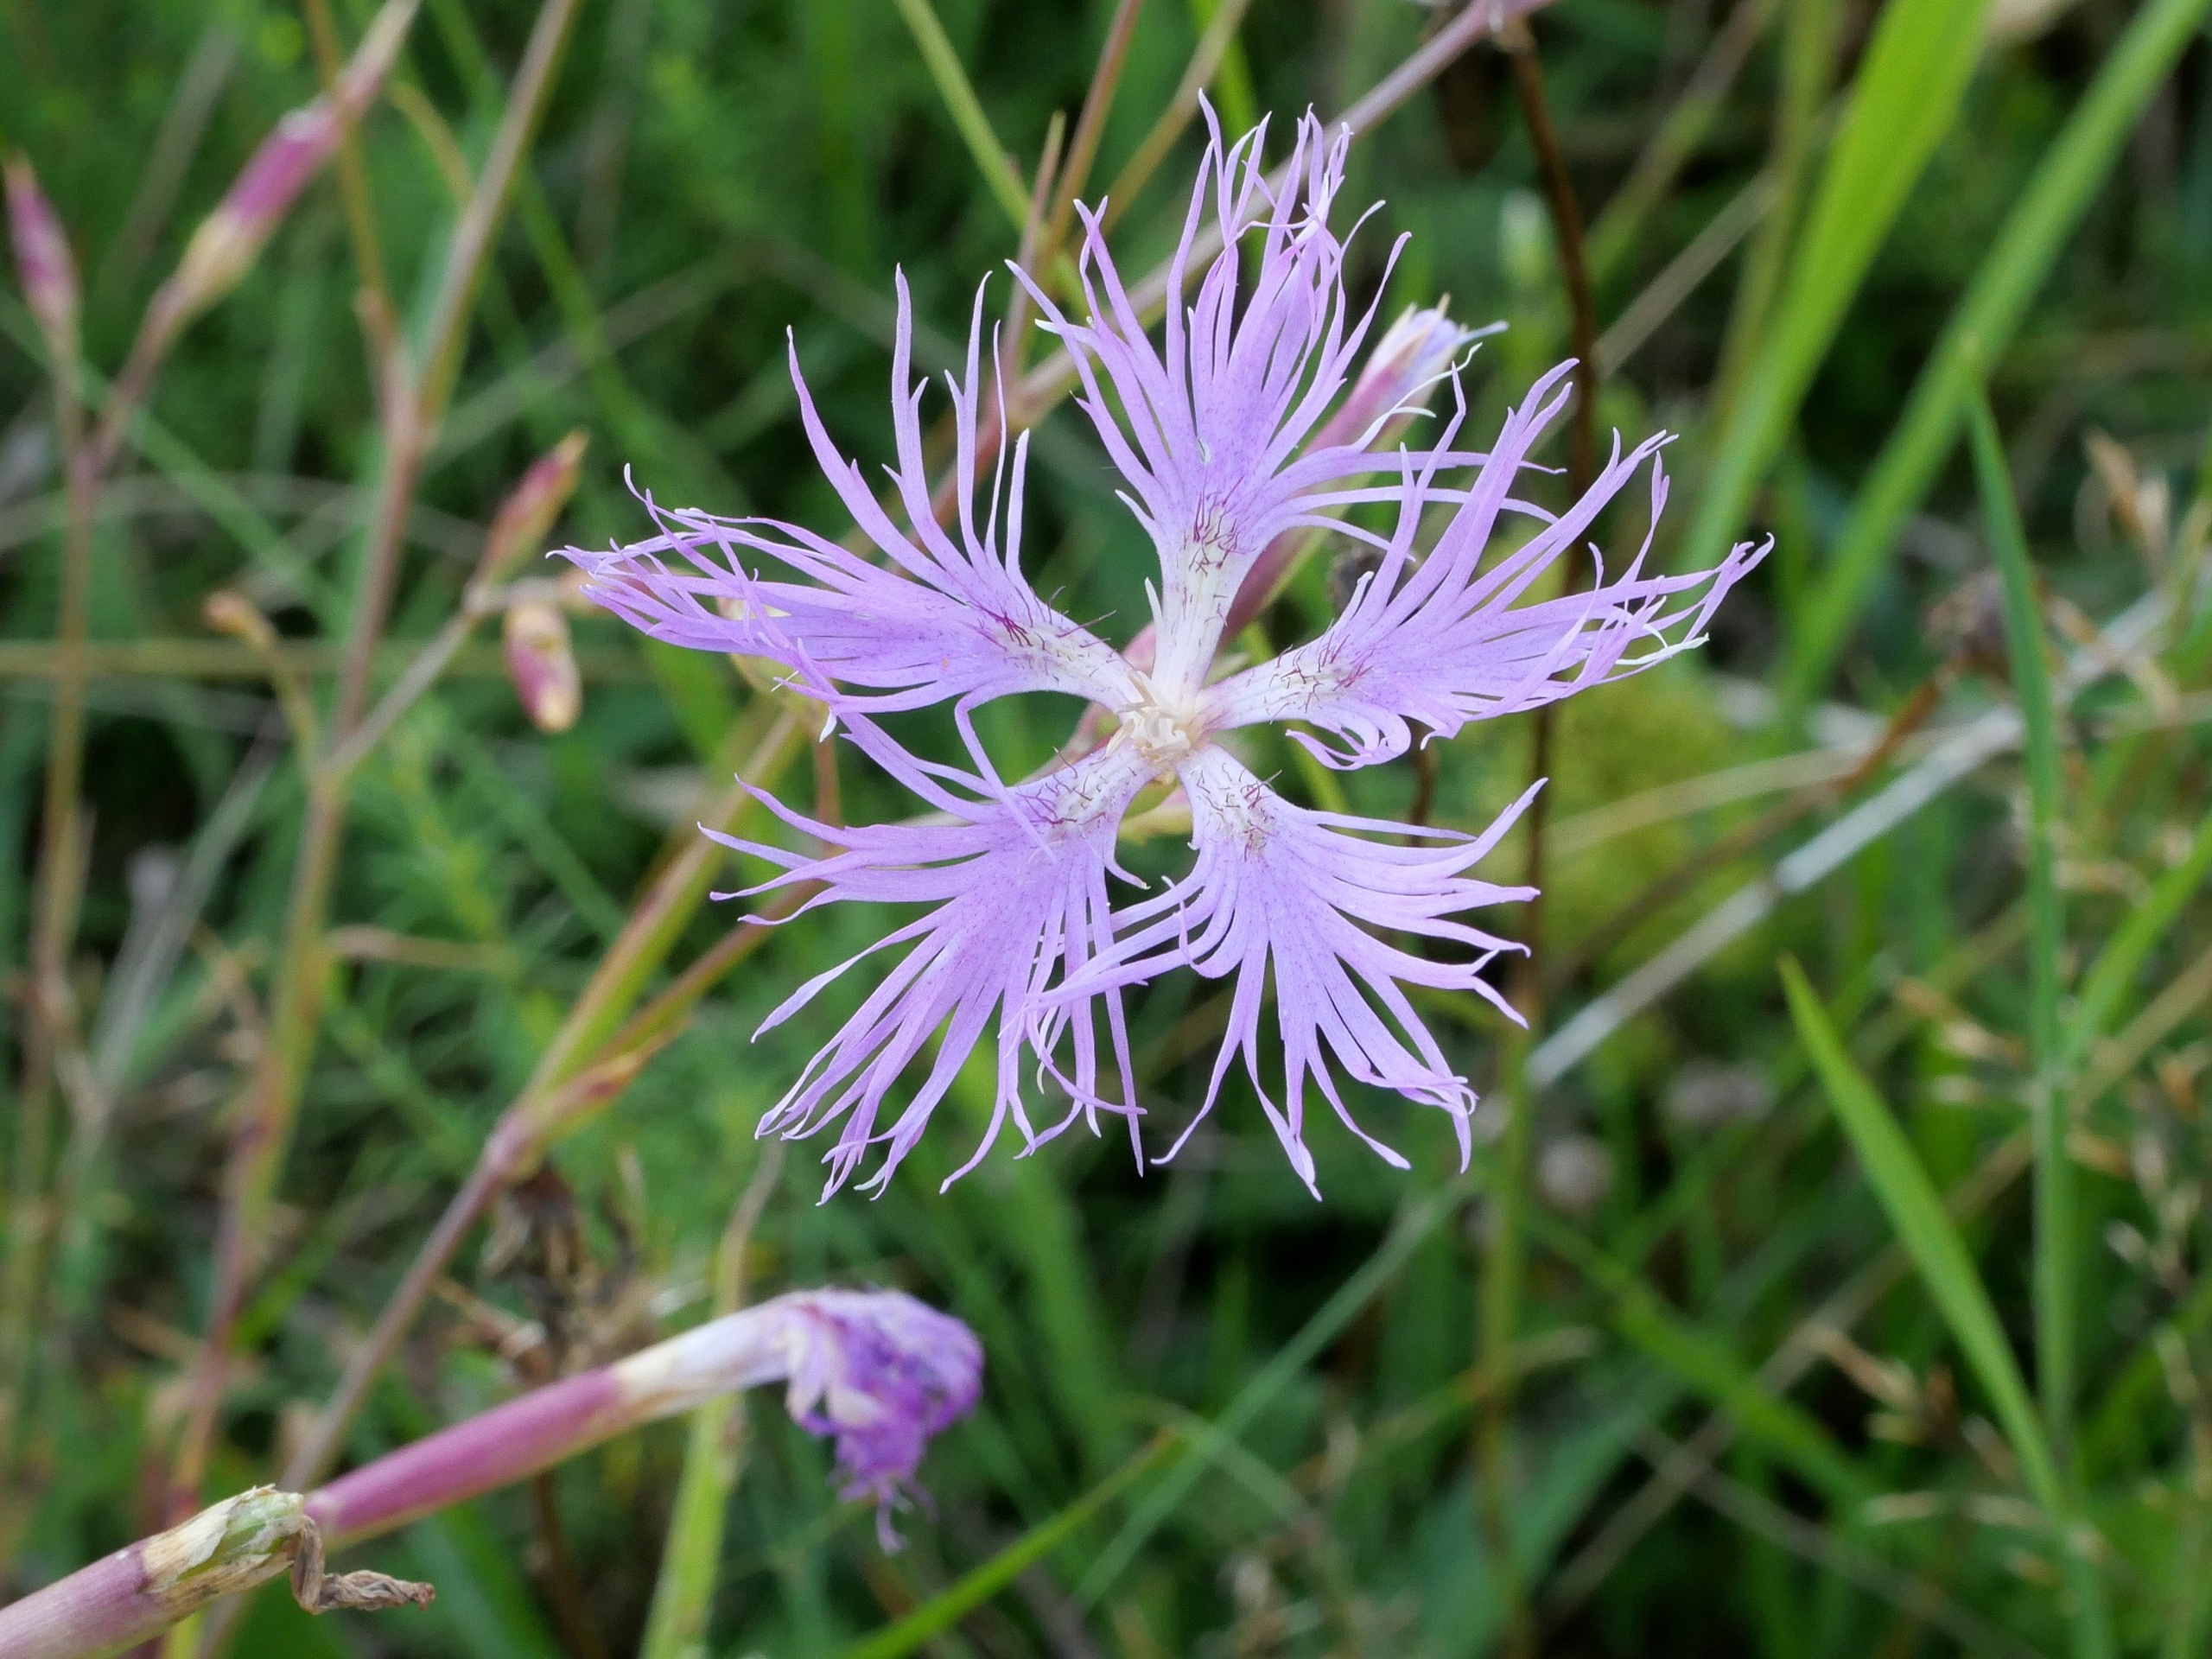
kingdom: Plantae
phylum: Tracheophyta
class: Magnoliopsida
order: Caryophyllales
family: Caryophyllaceae
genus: Dianthus
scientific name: Dianthus superbus
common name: Strand-nellike
